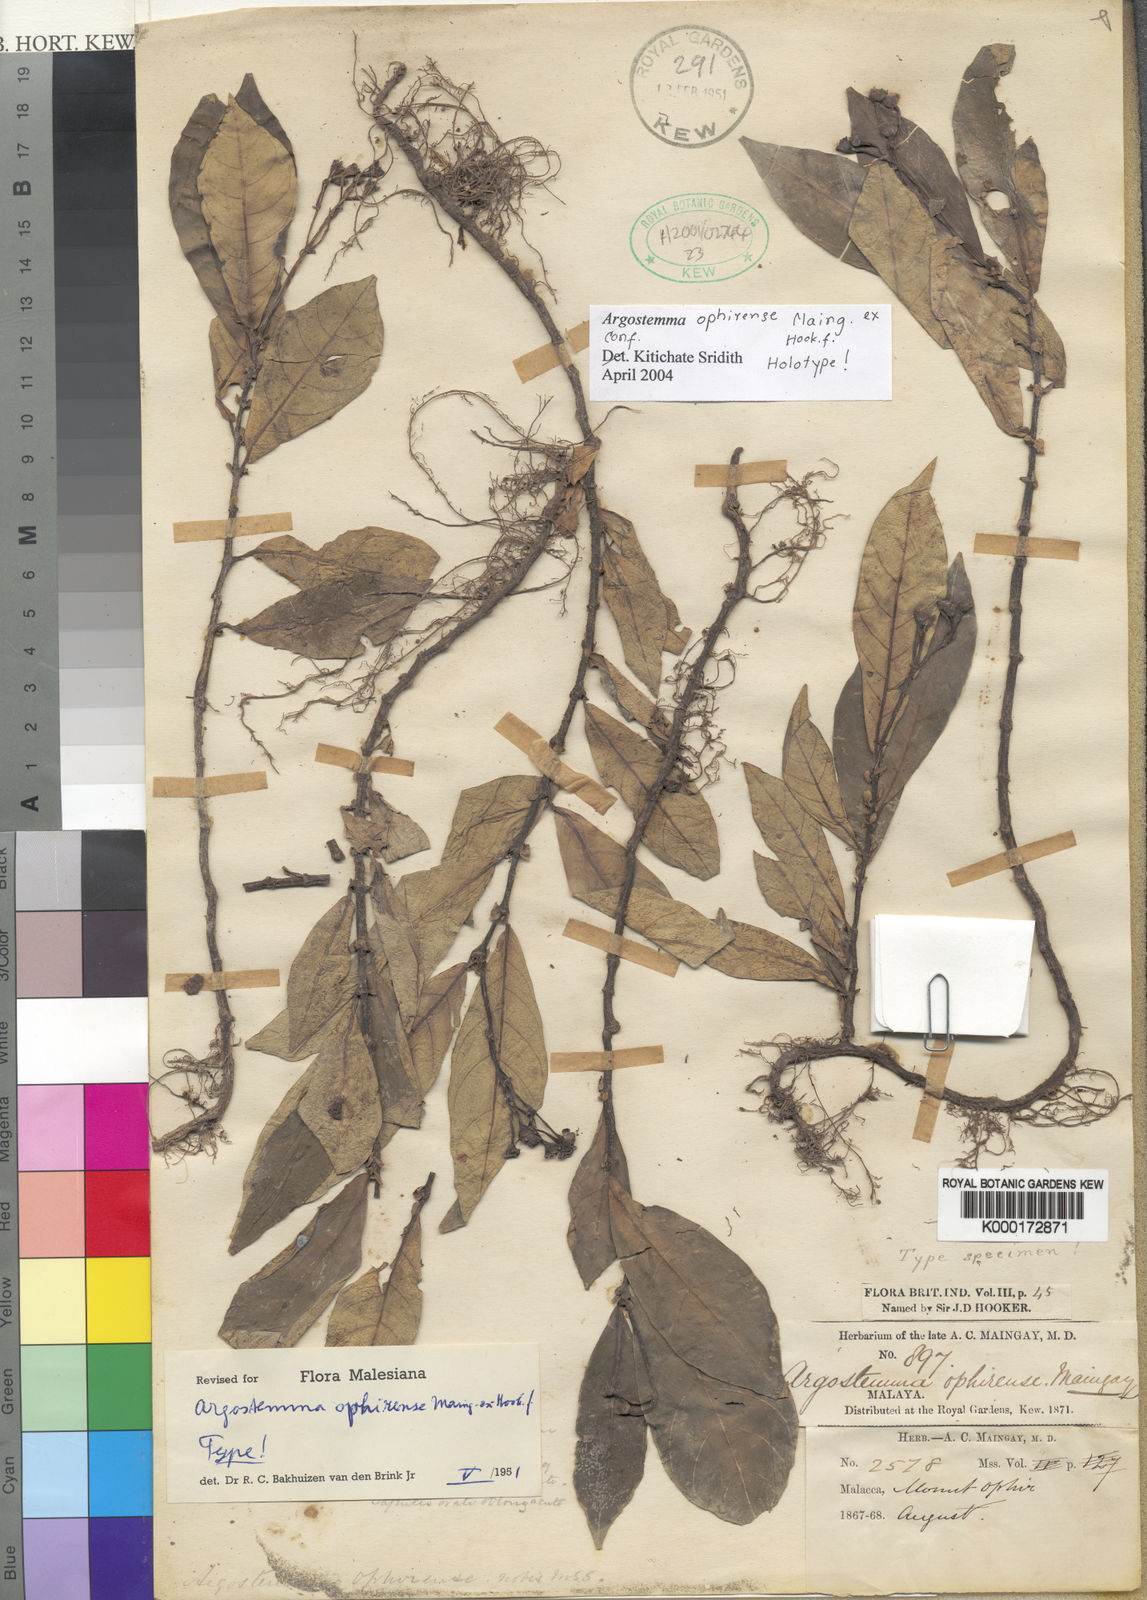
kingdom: Plantae
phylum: Tracheophyta
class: Magnoliopsida
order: Gentianales
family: Rubiaceae
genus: Argostemma
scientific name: Argostemma ophirense
